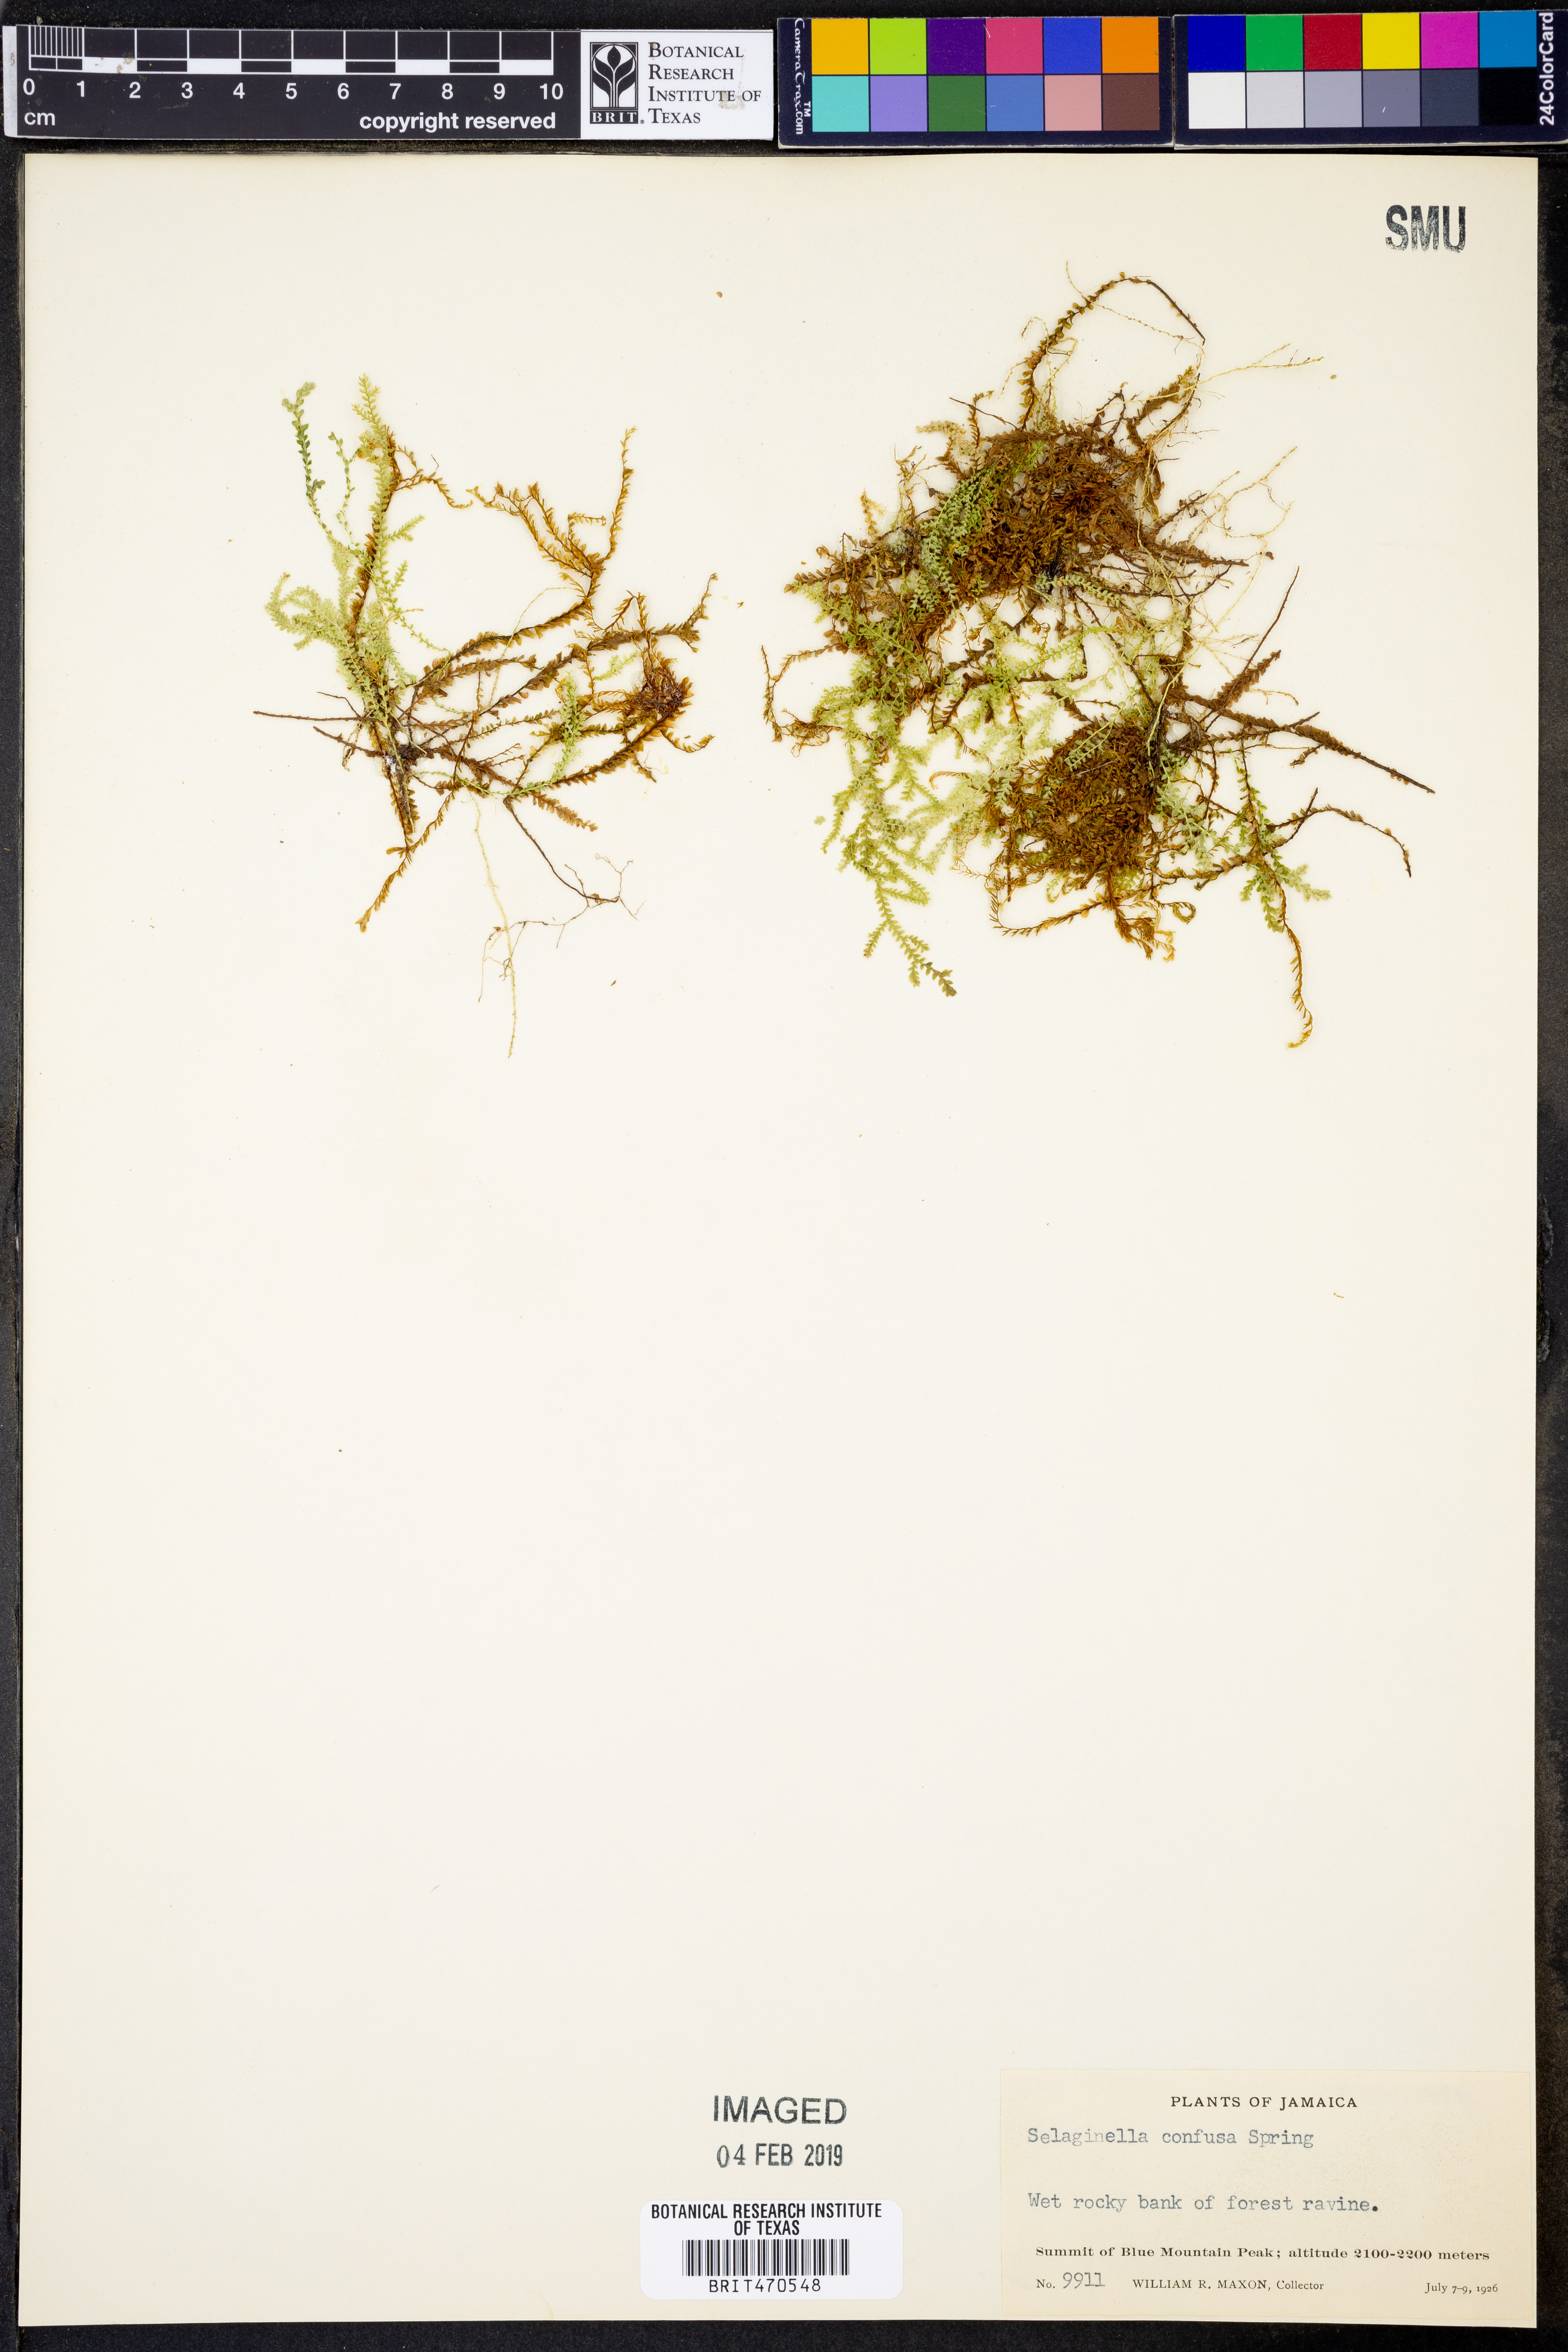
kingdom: Plantae
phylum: Tracheophyta
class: Lycopodiopsida
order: Selaginellales
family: Selaginellaceae
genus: Selaginella
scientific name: Selaginella confusa
